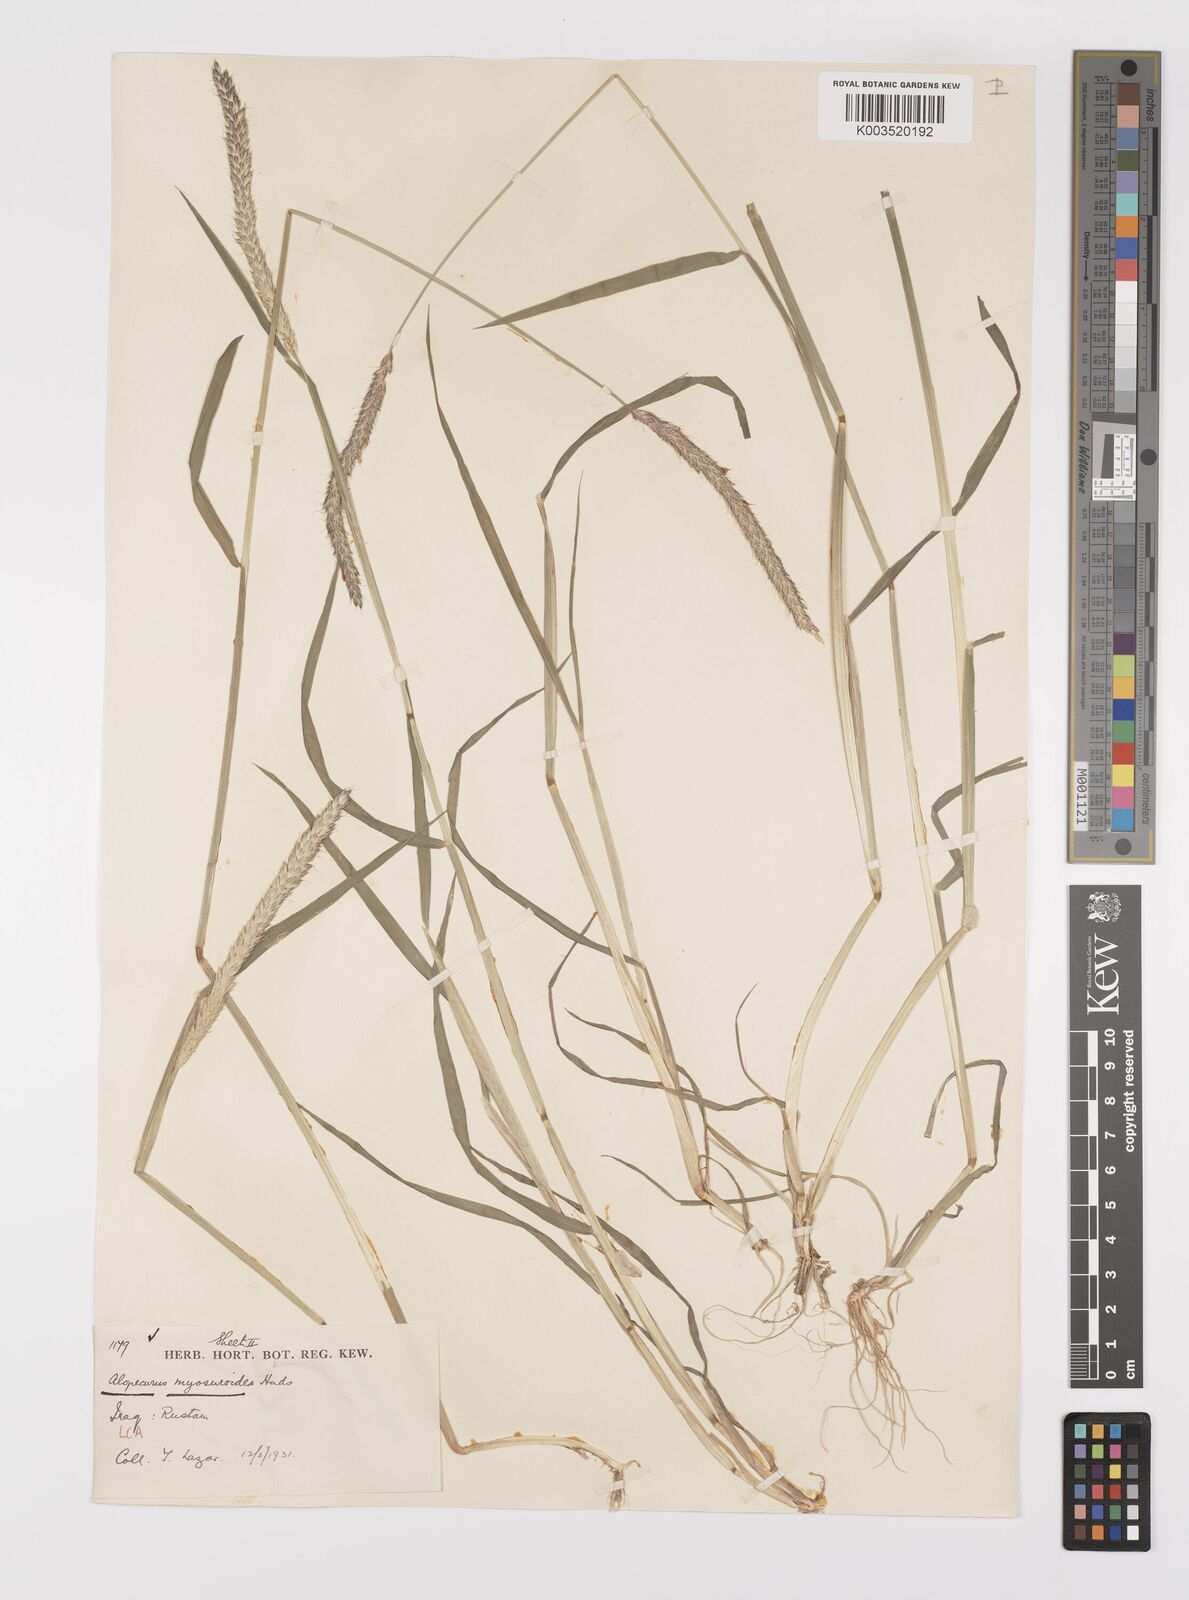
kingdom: Plantae
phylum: Tracheophyta
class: Liliopsida
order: Poales
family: Poaceae
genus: Alopecurus
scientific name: Alopecurus myosuroides
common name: Black-grass
